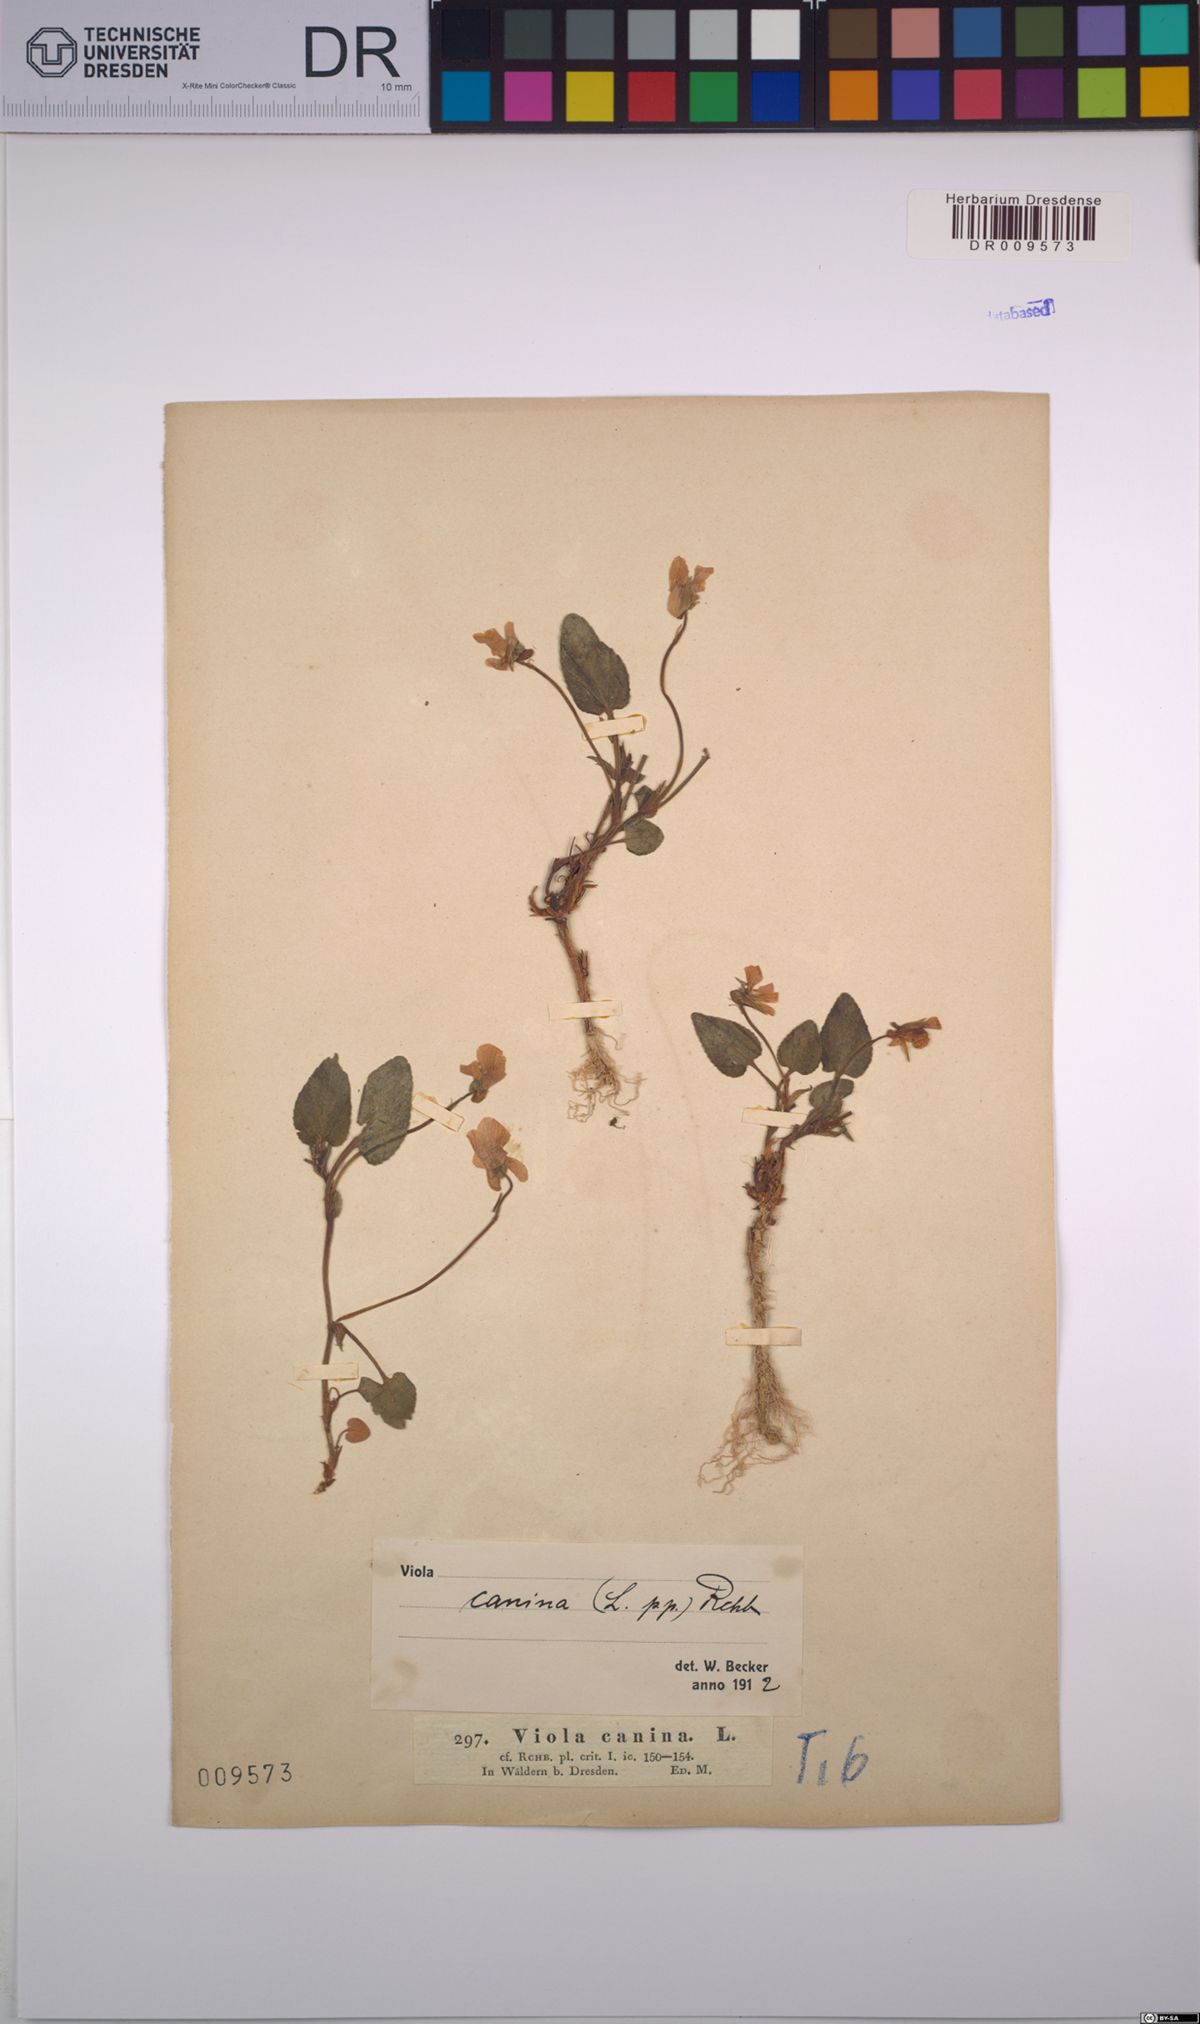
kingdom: Plantae
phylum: Tracheophyta
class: Magnoliopsida
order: Malpighiales
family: Violaceae
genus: Viola
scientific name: Viola canina
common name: Heath dog-violet
